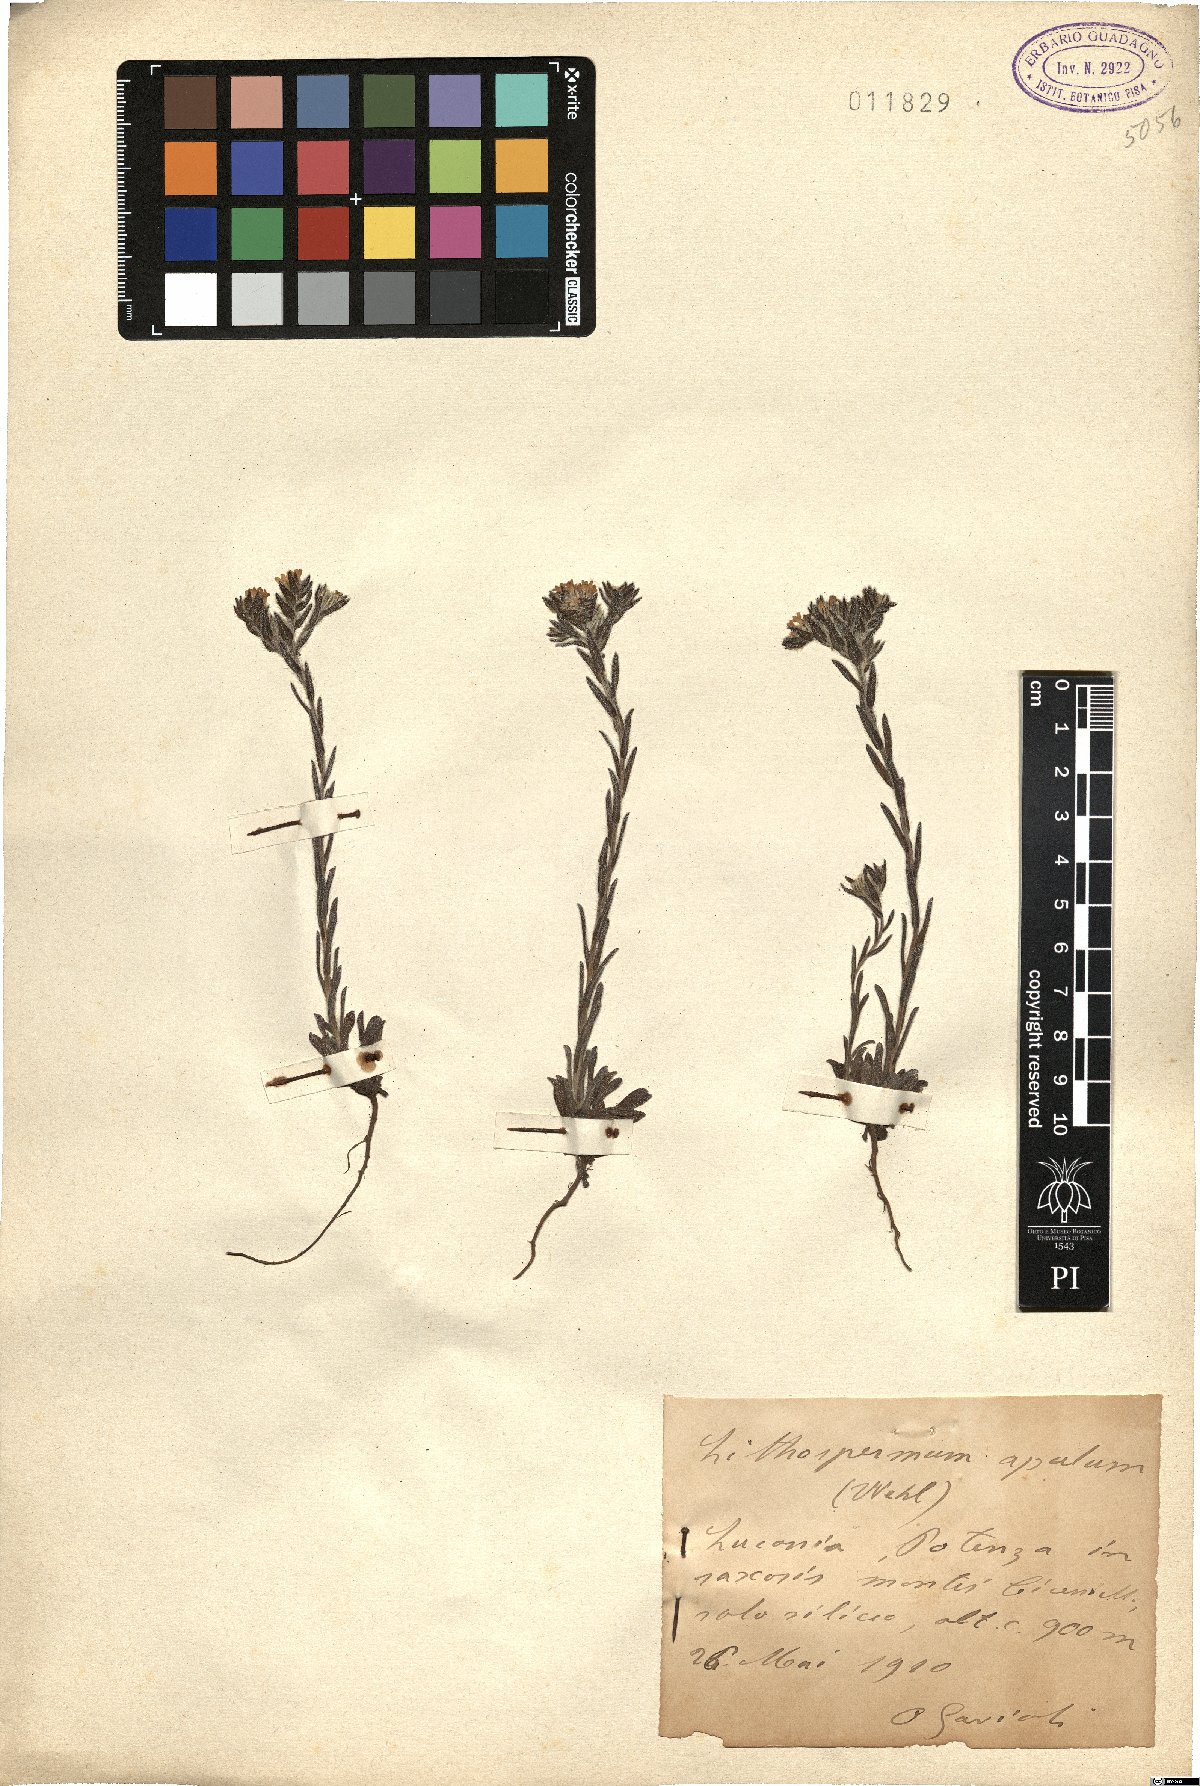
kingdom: Plantae
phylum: Tracheophyta
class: Magnoliopsida
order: Boraginales
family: Boraginaceae
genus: Neatostema
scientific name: Neatostema apulum
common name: Hairy sheepweed
